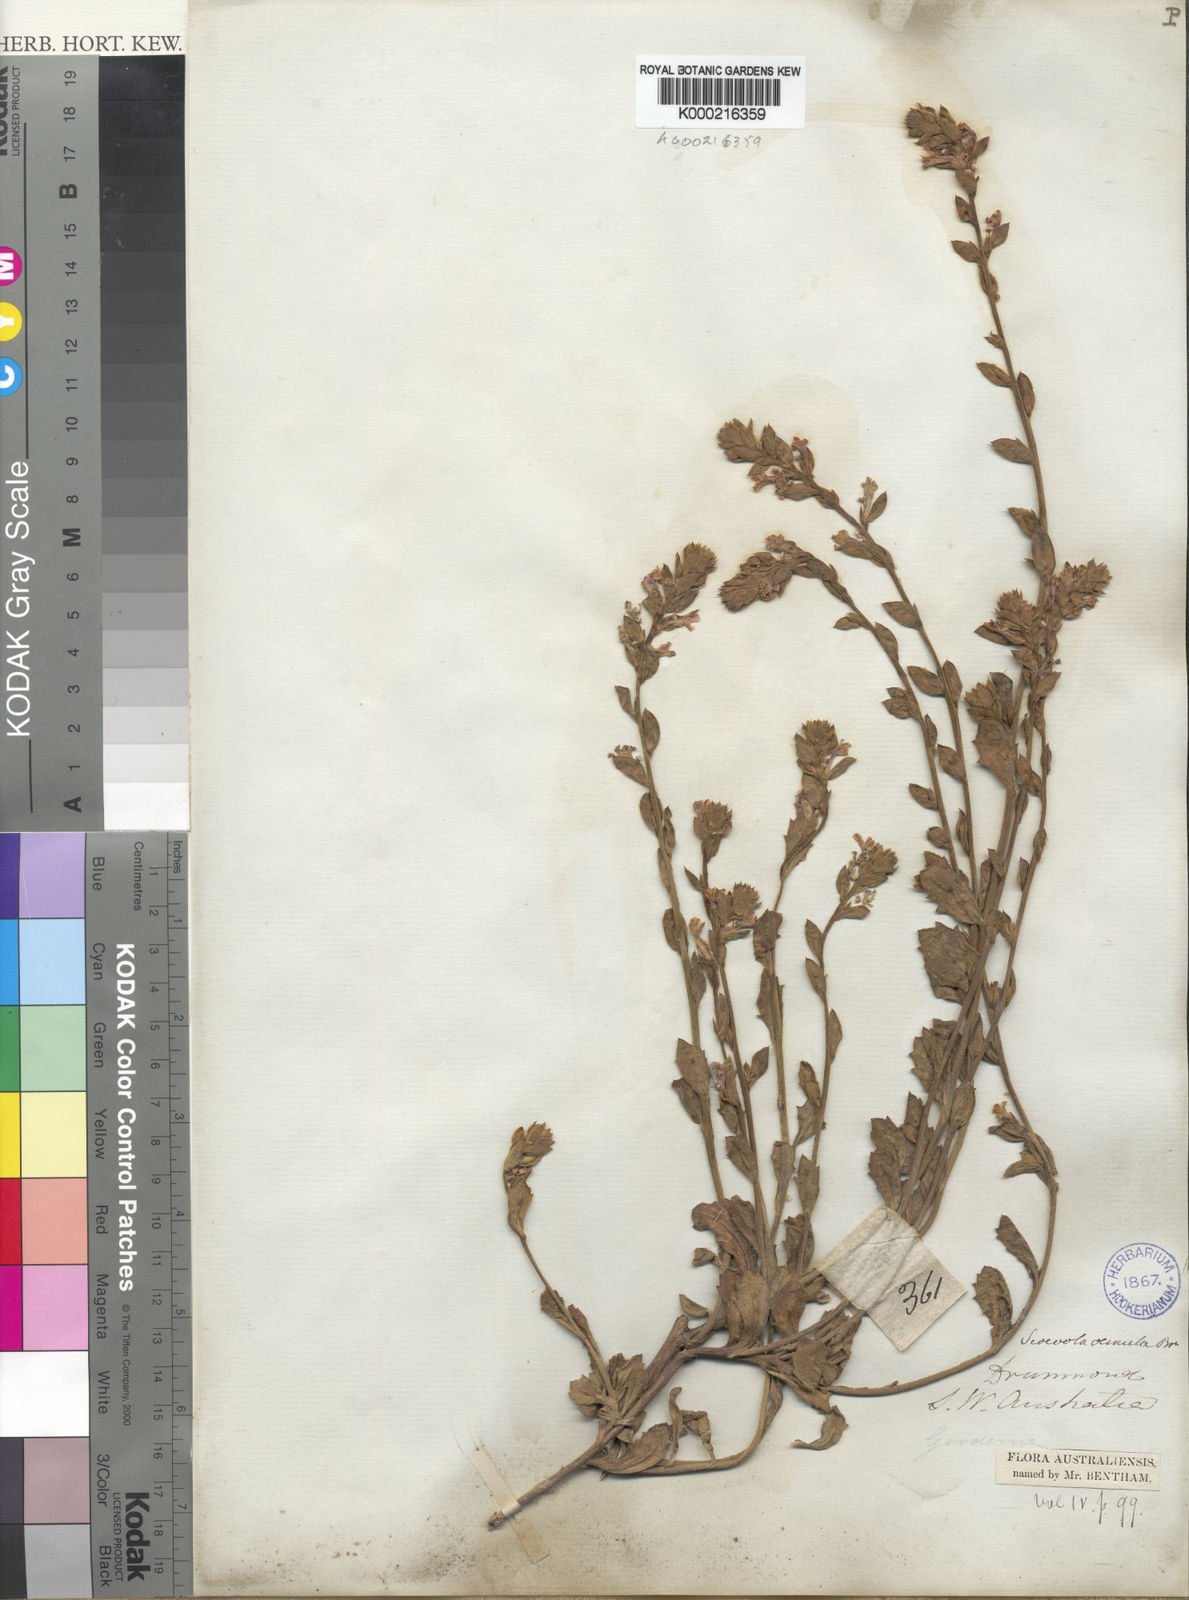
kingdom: Plantae
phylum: Tracheophyta
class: Magnoliopsida
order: Asterales
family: Goodeniaceae
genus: Scaevola
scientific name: Scaevola aemula
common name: Common fanflower
